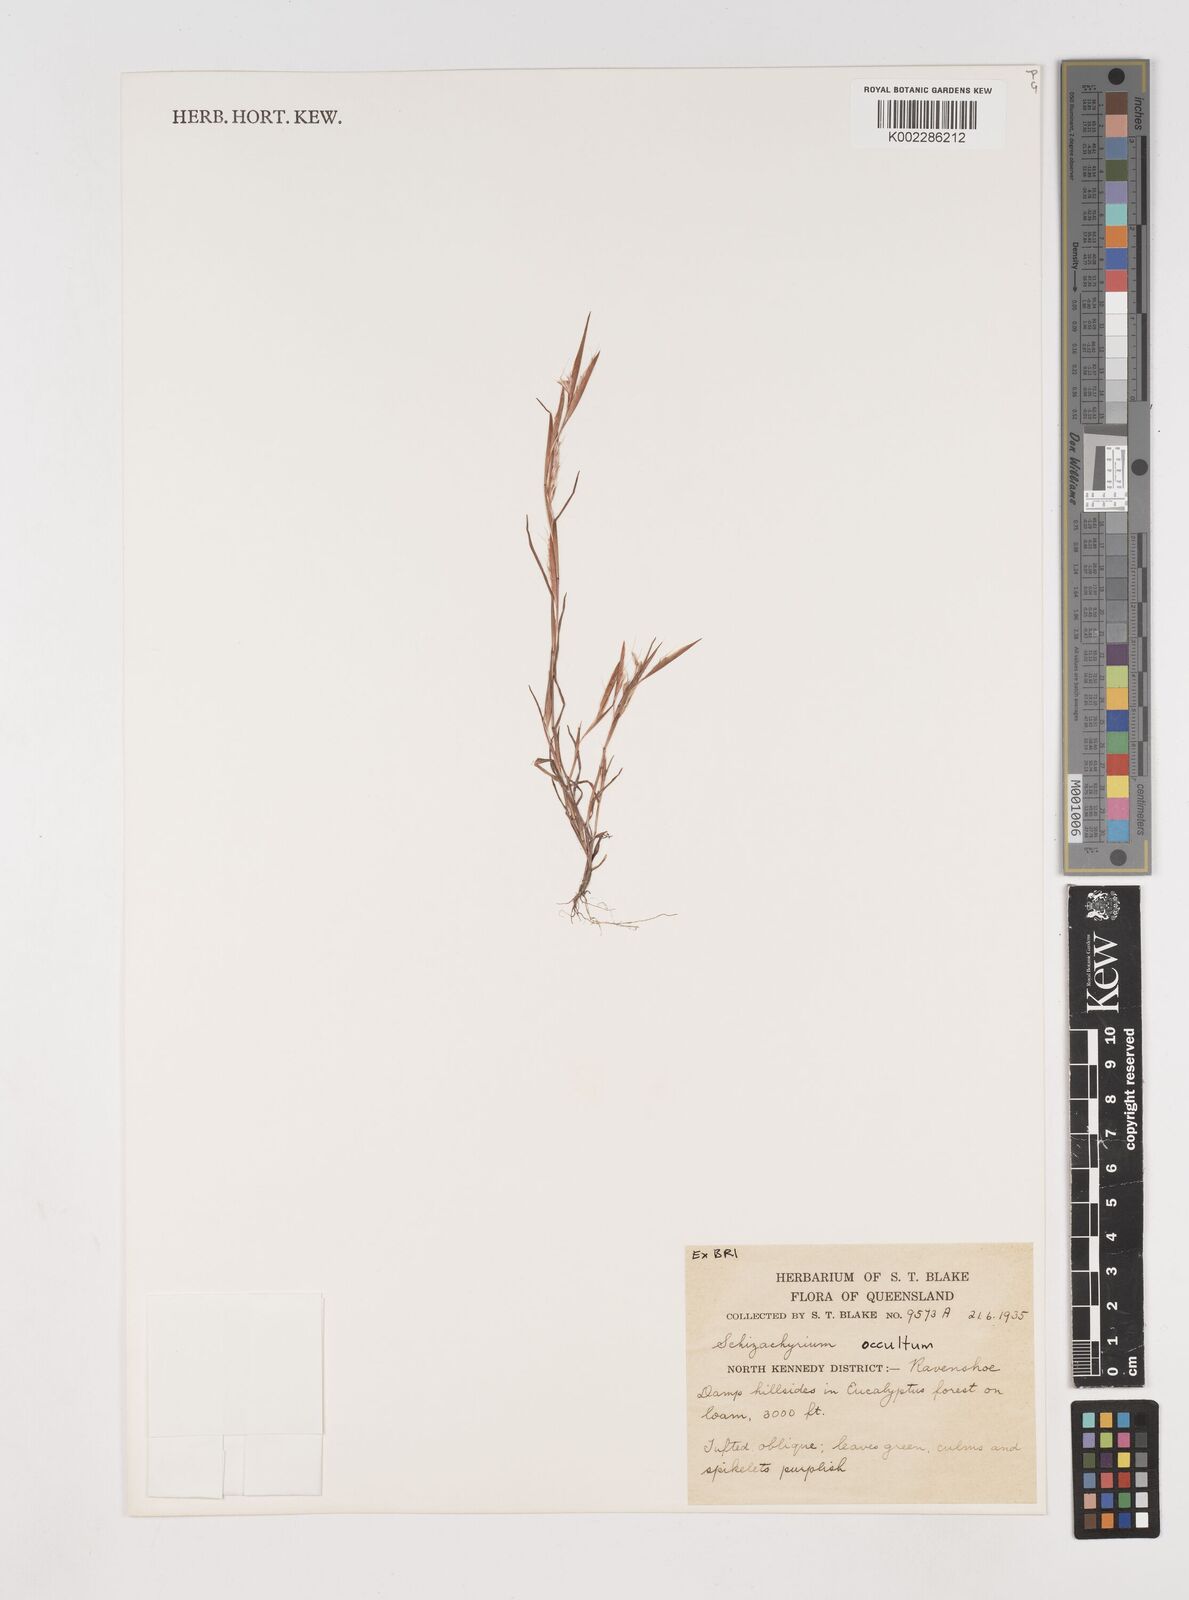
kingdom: Plantae
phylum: Tracheophyta
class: Liliopsida
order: Poales
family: Poaceae
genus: Schizachyrium
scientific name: Schizachyrium occultum
